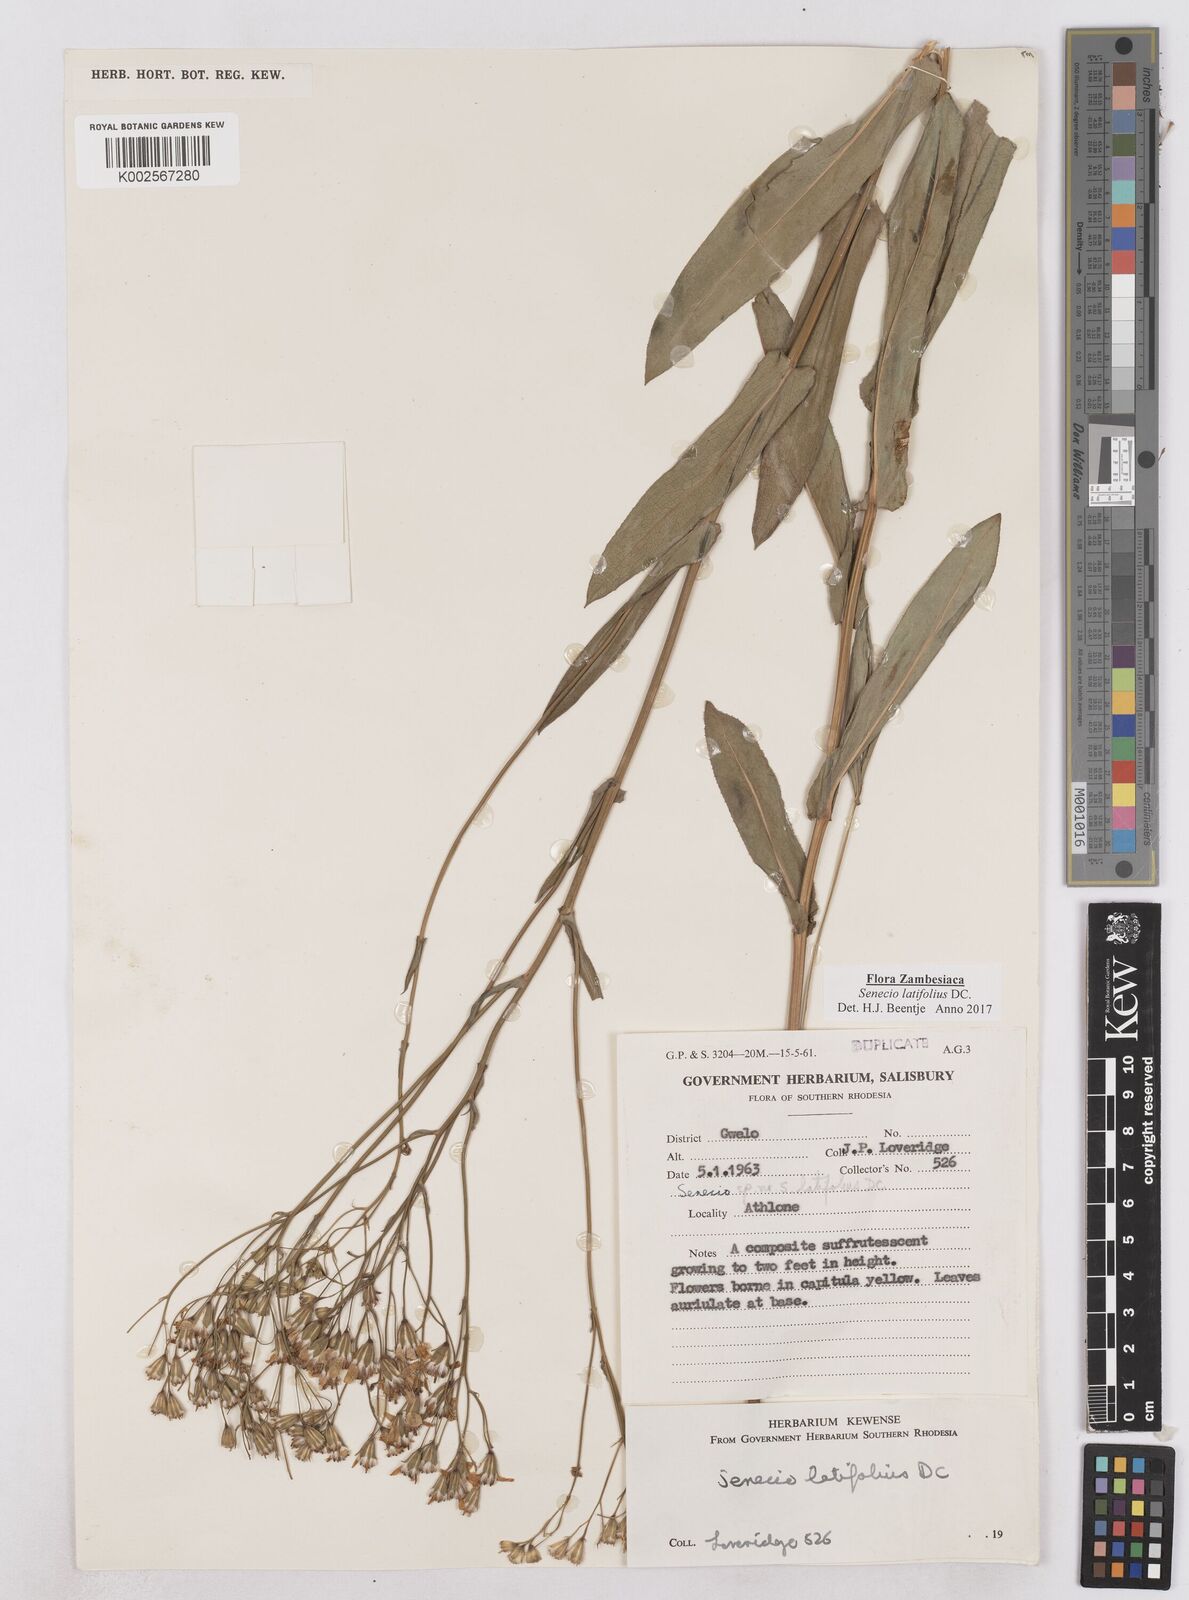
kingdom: Plantae
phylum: Tracheophyta
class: Magnoliopsida
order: Asterales
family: Asteraceae
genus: Senecio
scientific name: Senecio latifolius
